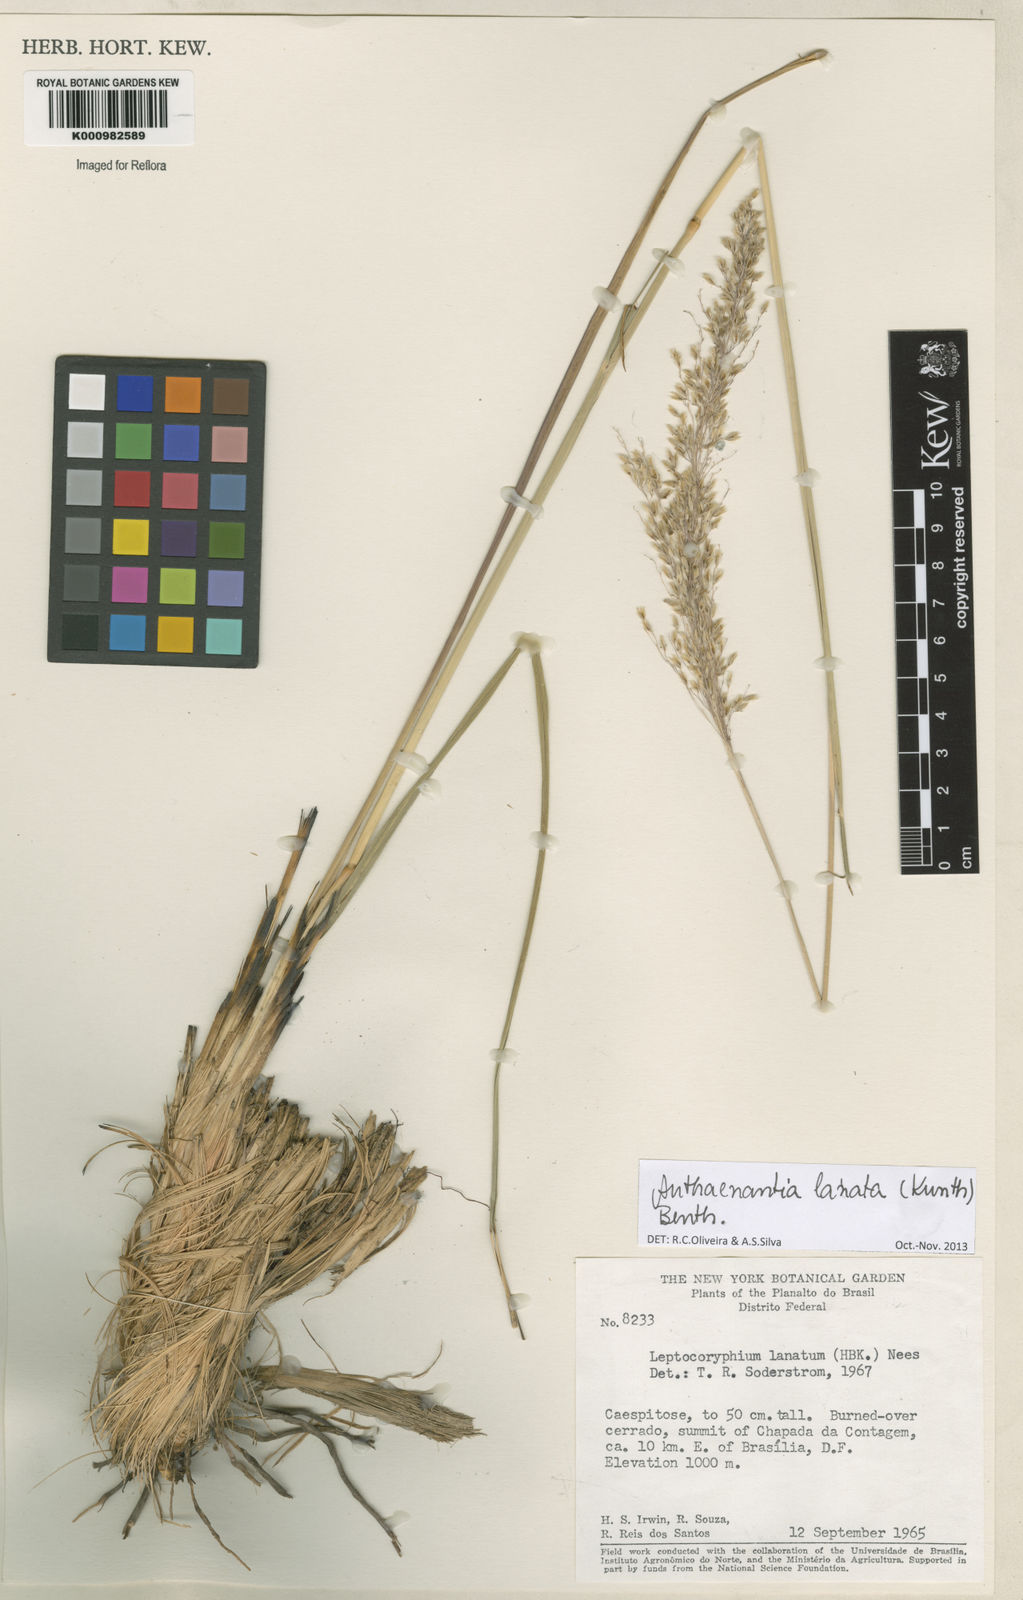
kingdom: Plantae
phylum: Tracheophyta
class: Liliopsida
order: Poales
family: Poaceae
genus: Anthenantia
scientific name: Anthenantia lanata
